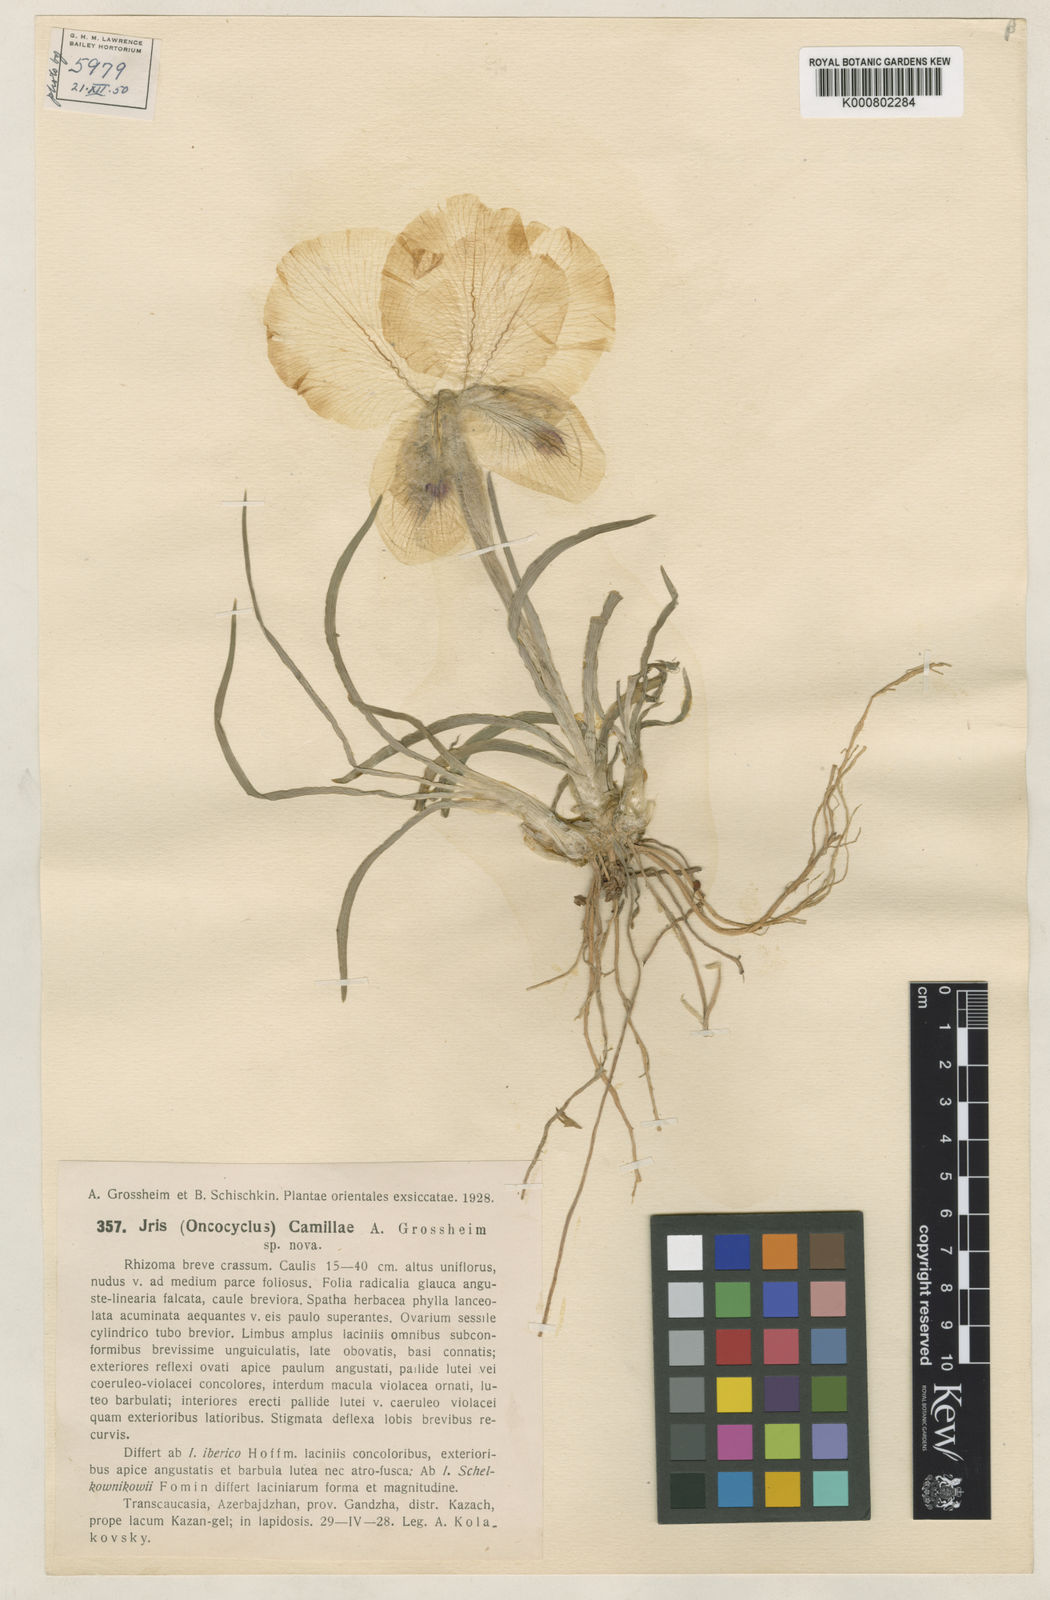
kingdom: Plantae
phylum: Tracheophyta
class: Liliopsida
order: Asparagales
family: Iridaceae
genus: Iris
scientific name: Iris camillae
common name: Kamilla's iris
